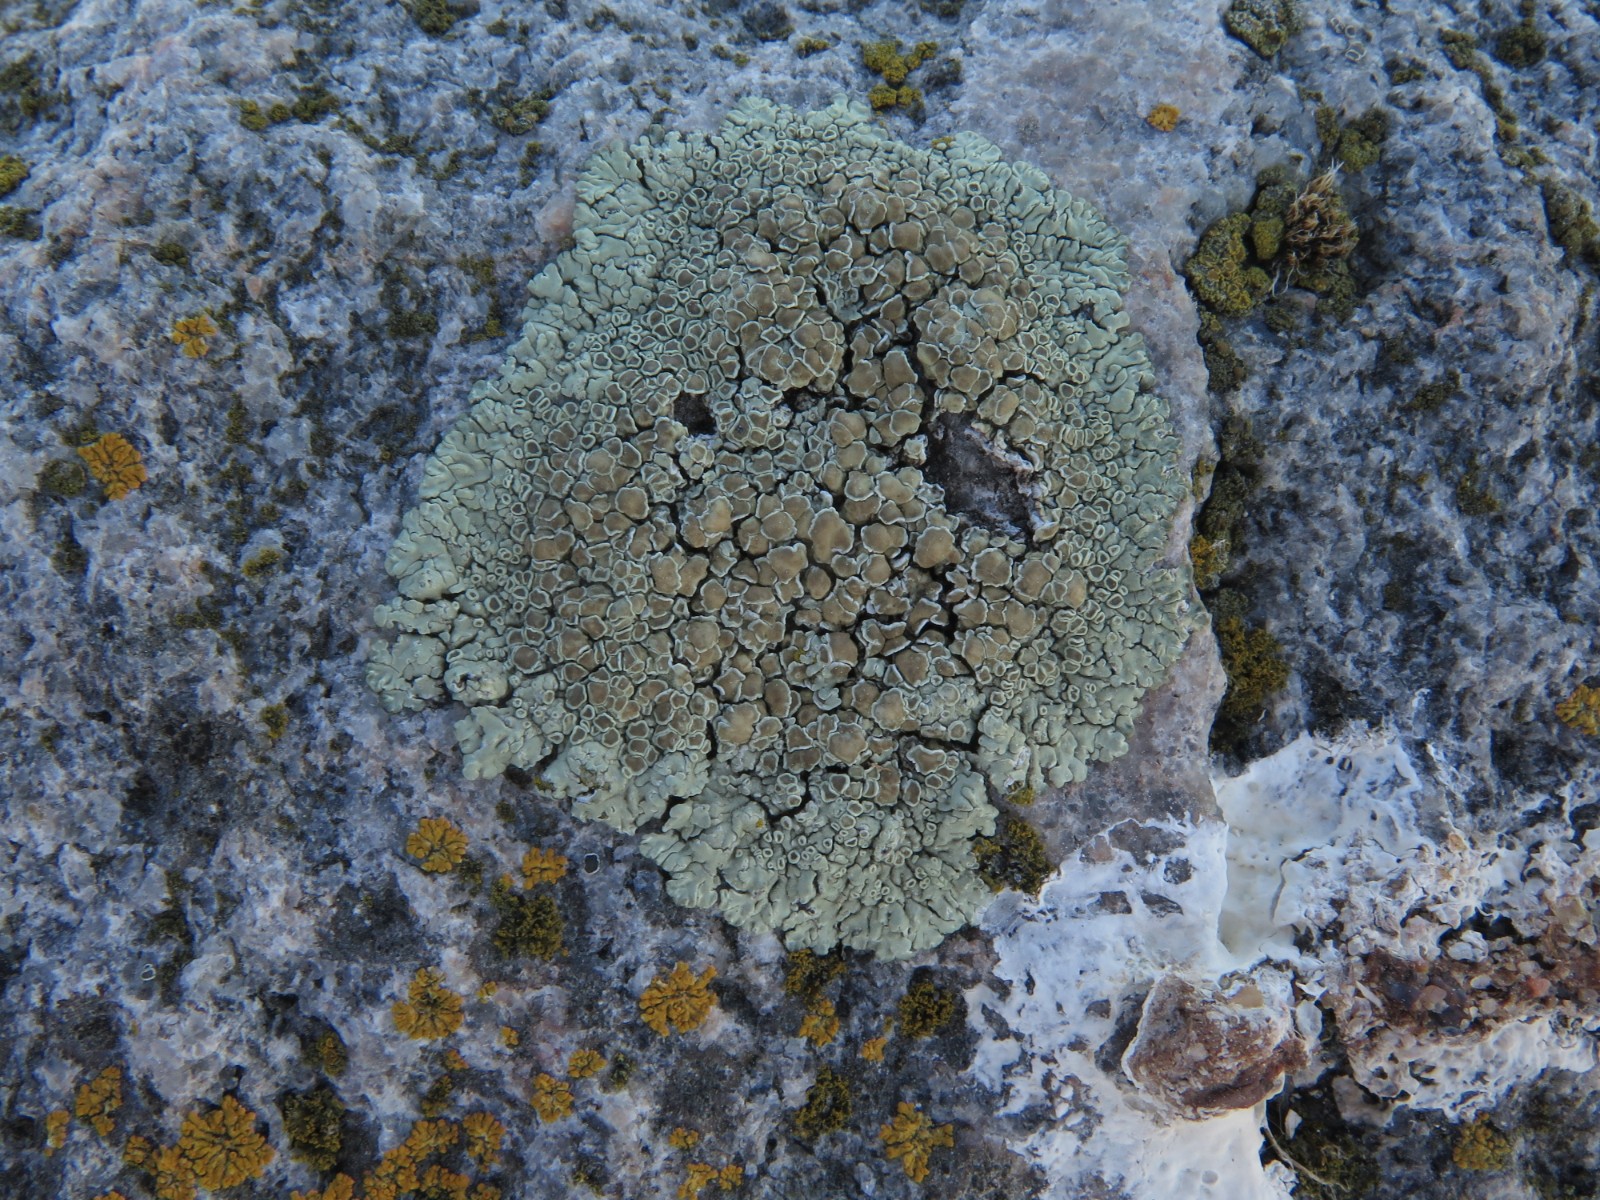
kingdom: Fungi
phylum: Ascomycota
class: Lecanoromycetes
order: Lecanorales
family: Lecanoraceae
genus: Protoparmeliopsis
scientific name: Protoparmeliopsis muralis
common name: randfliget kantskivelav
